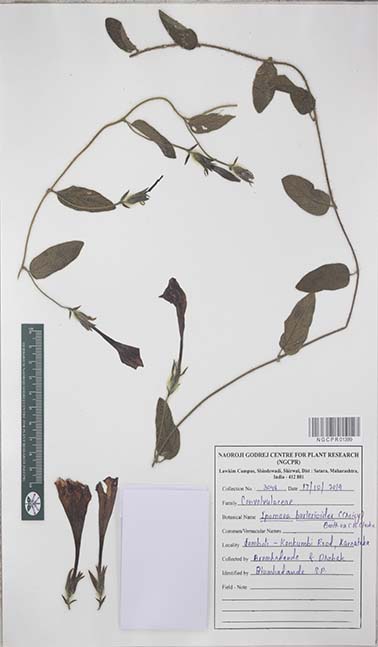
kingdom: Plantae
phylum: Tracheophyta
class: Magnoliopsida
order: Solanales
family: Convolvulaceae
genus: Ipomoea
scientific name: Ipomoea barlerioides
